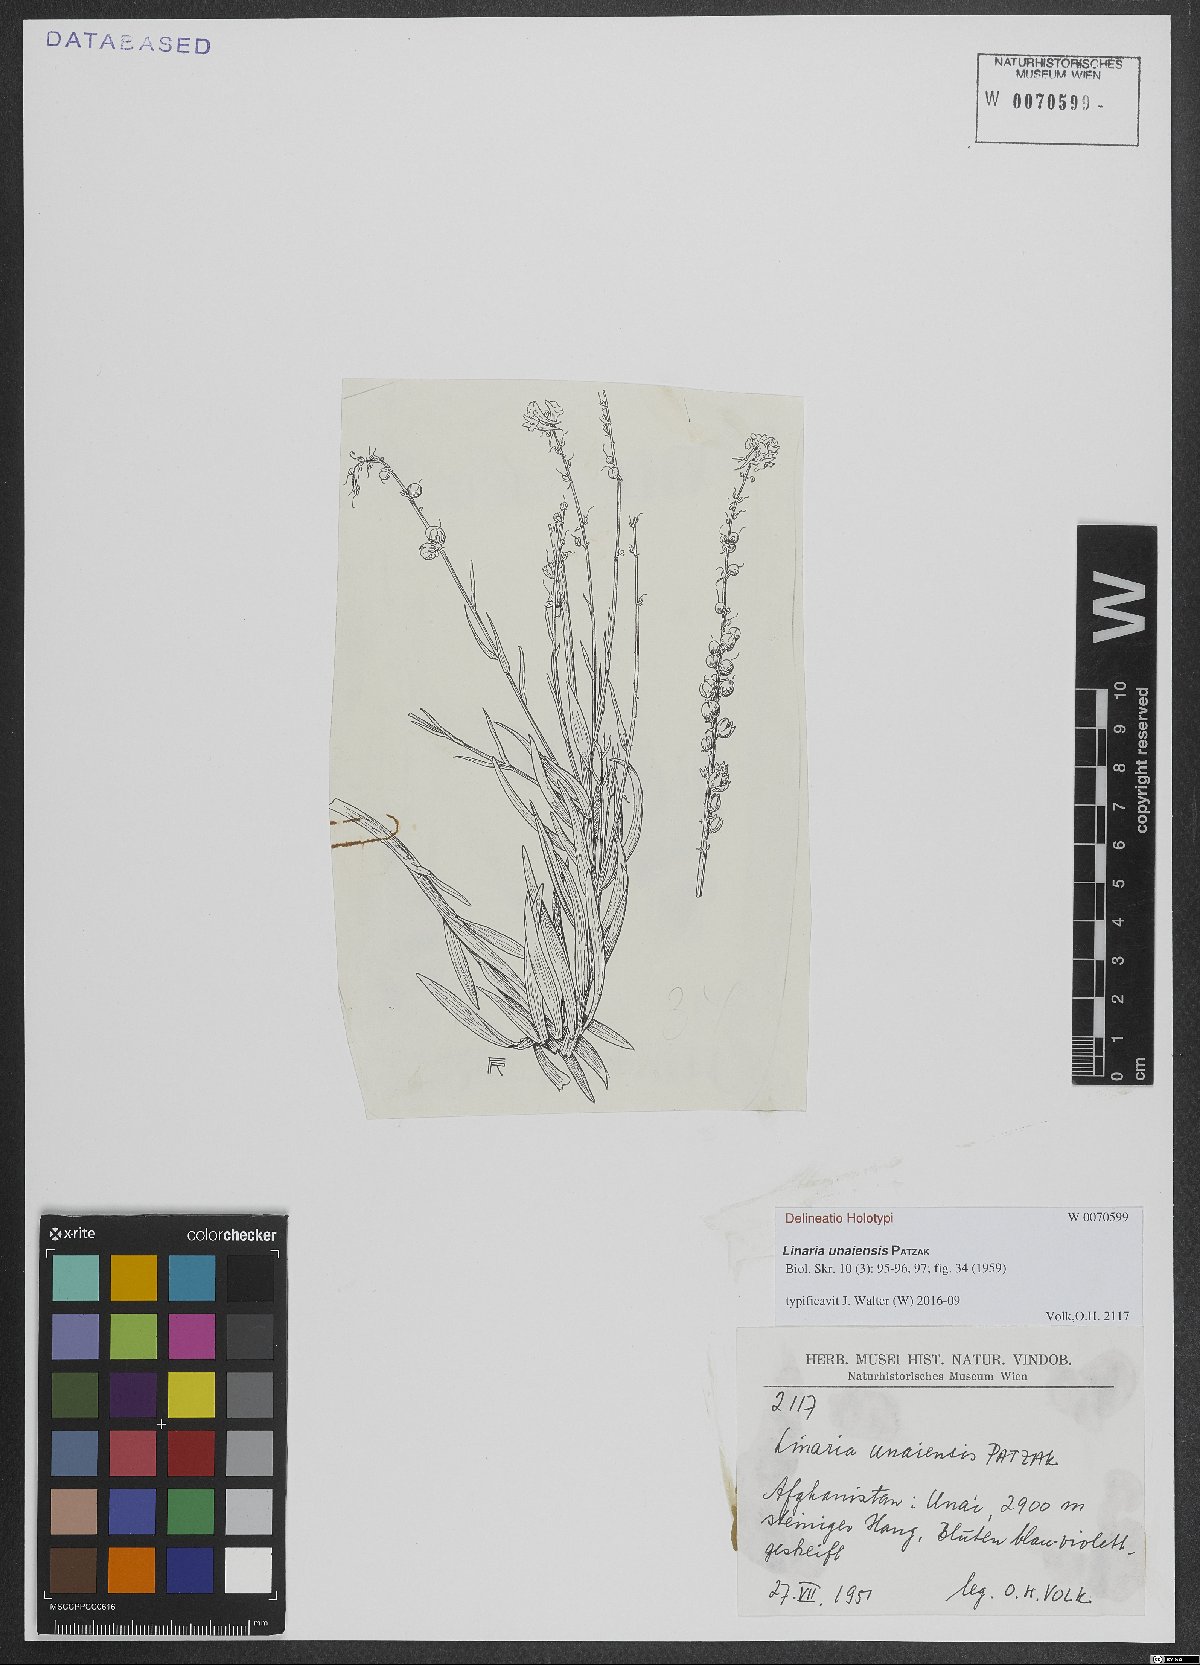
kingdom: Plantae
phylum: Tracheophyta
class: Magnoliopsida
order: Lamiales
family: Plantaginaceae
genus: Linaria
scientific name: Linaria unaiensis
